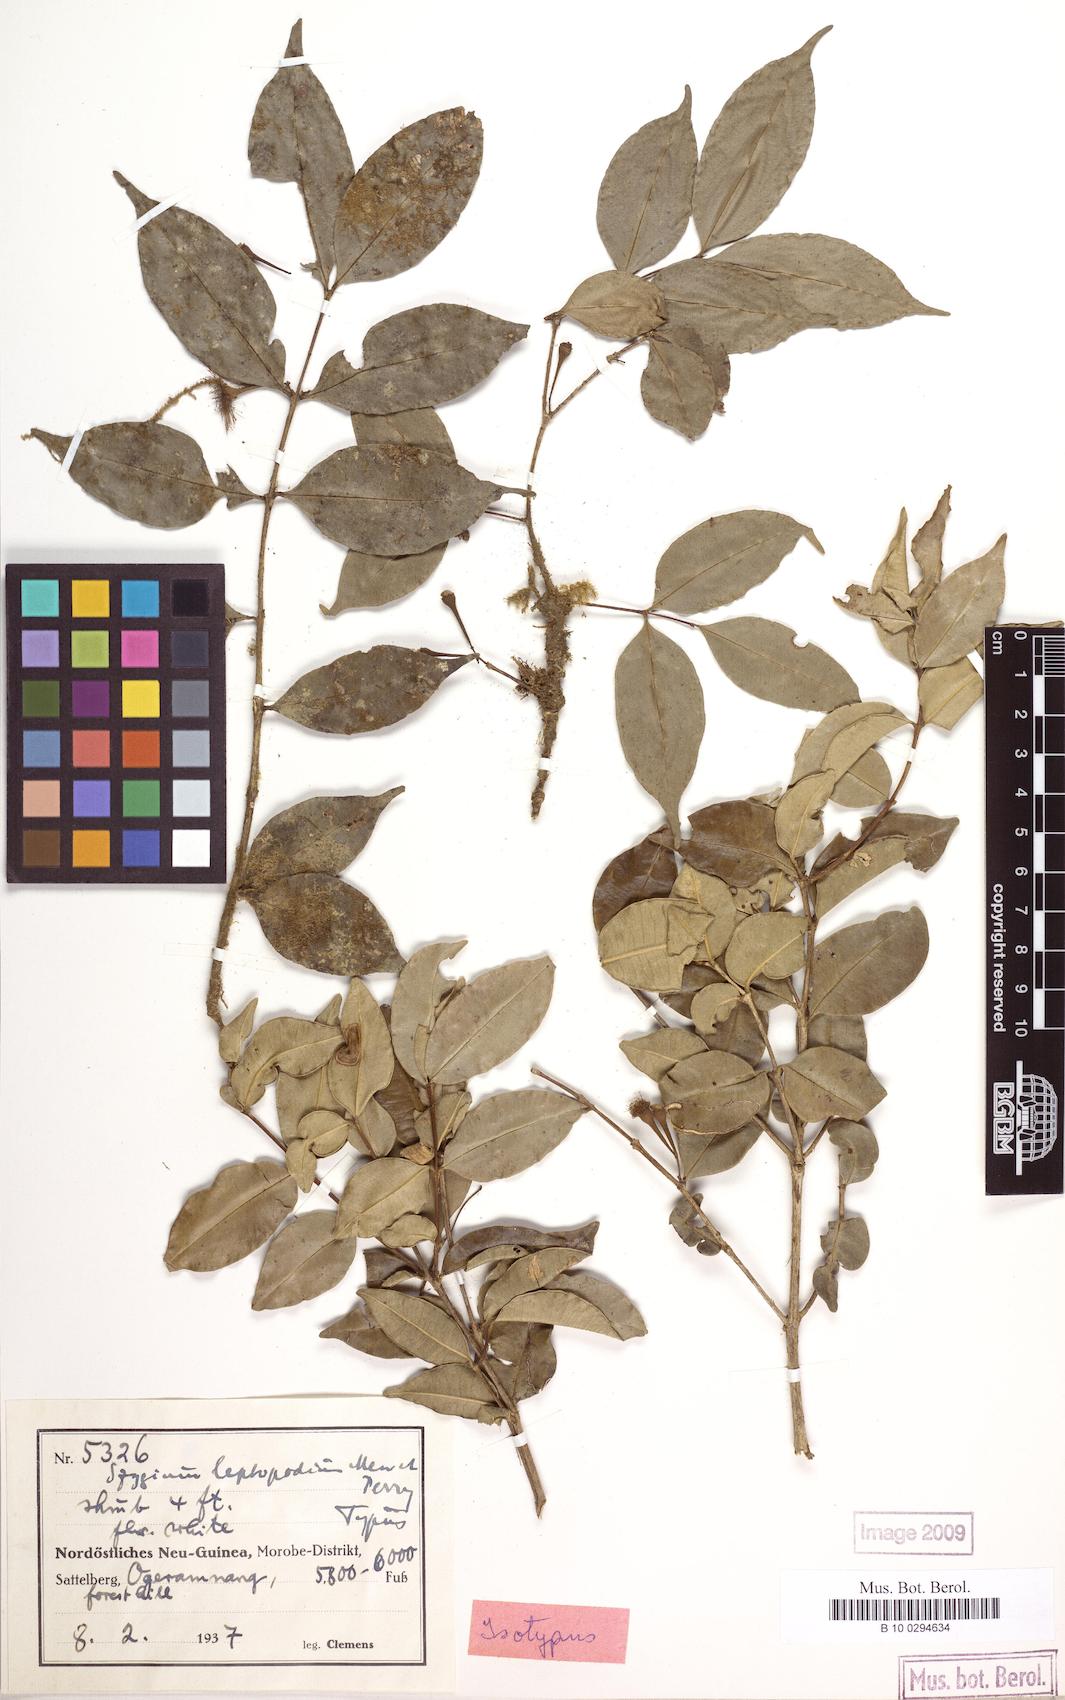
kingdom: Plantae
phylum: Tracheophyta
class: Magnoliopsida
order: Myrtales
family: Myrtaceae
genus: Syzygium
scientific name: Syzygium leptopodium
